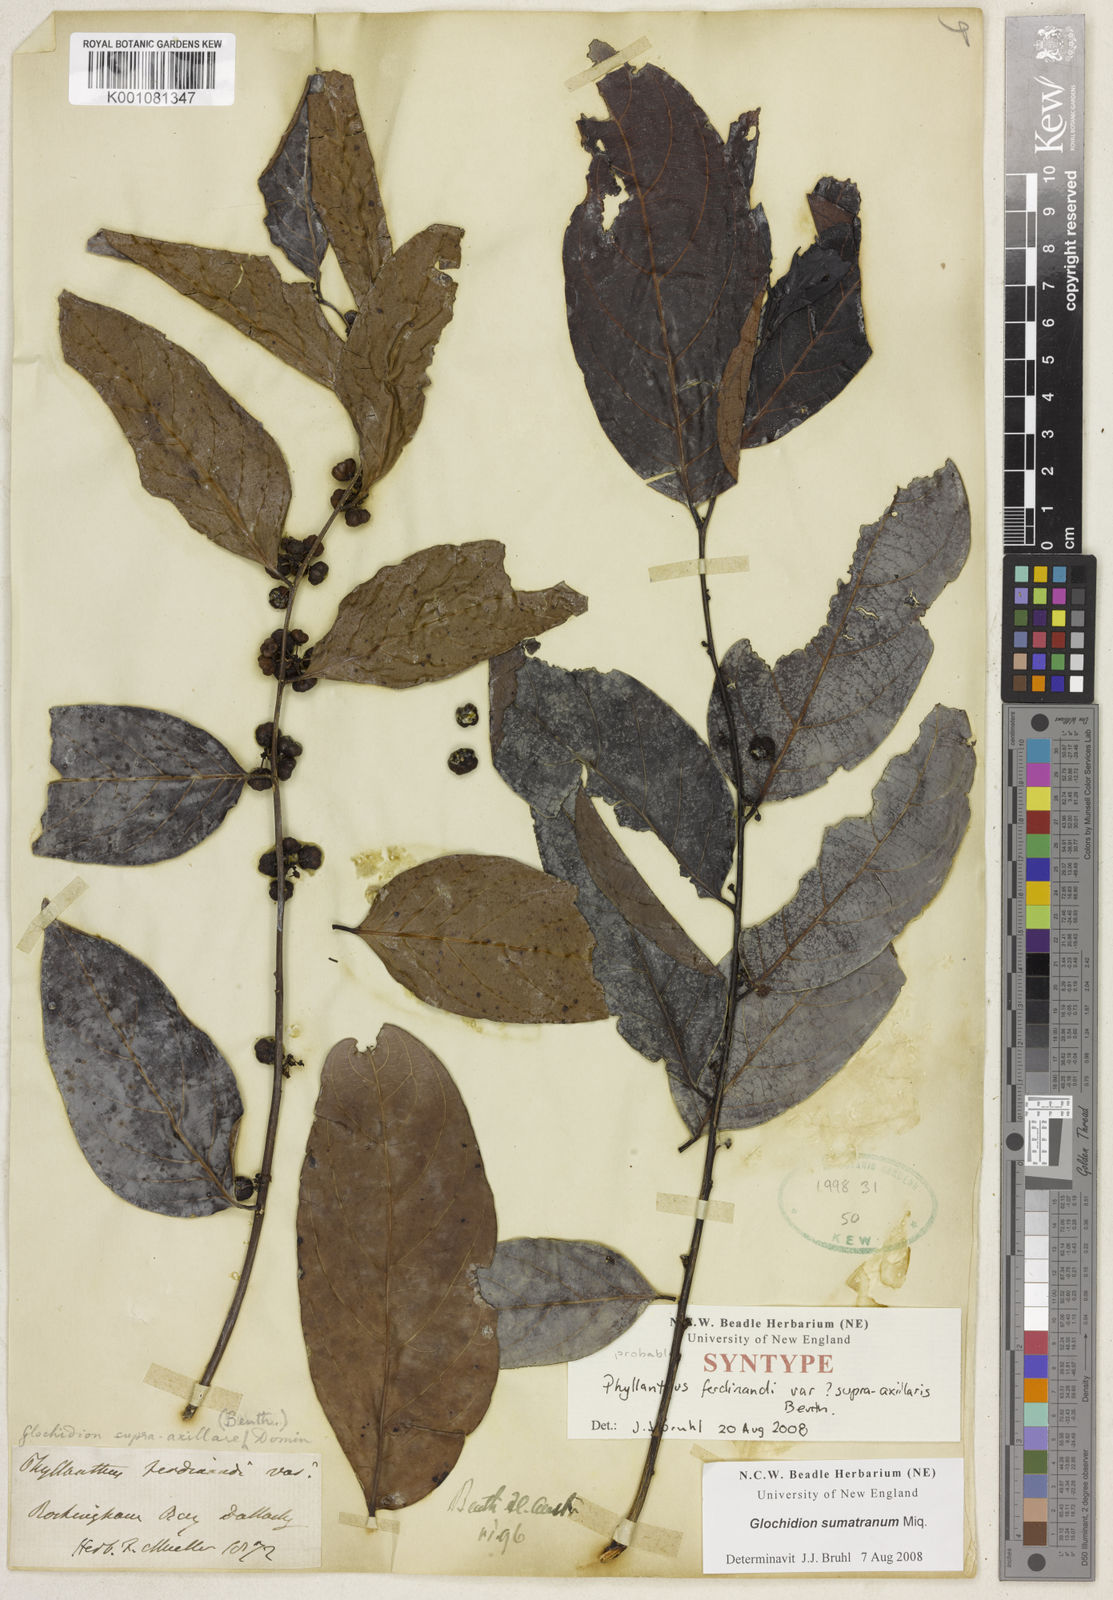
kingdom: Plantae
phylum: Tracheophyta
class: Magnoliopsida
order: Malpighiales
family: Phyllanthaceae
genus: Glochidion
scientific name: Glochidion zeylanicum
